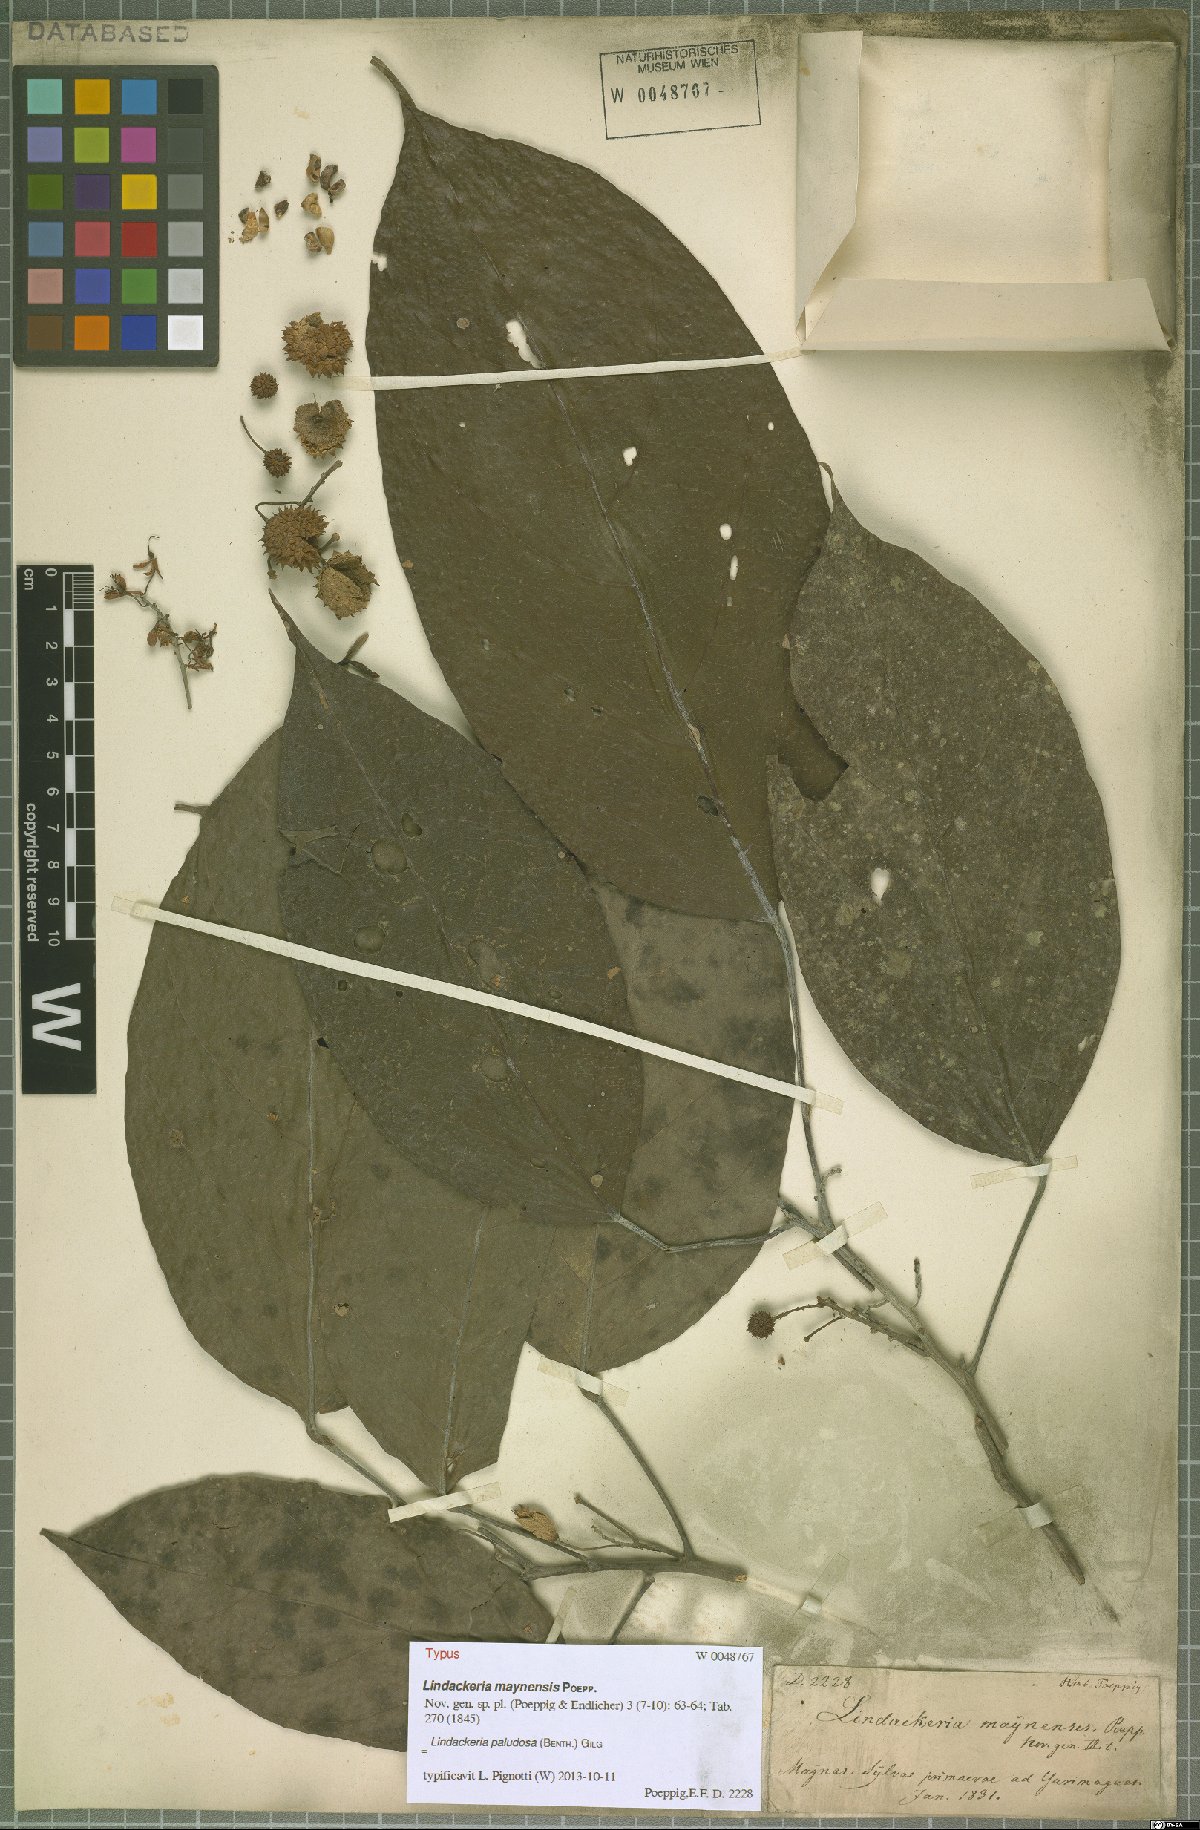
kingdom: Plantae
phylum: Tracheophyta
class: Magnoliopsida
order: Malpighiales
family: Achariaceae
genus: Lindackeria
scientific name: Lindackeria paludosa
